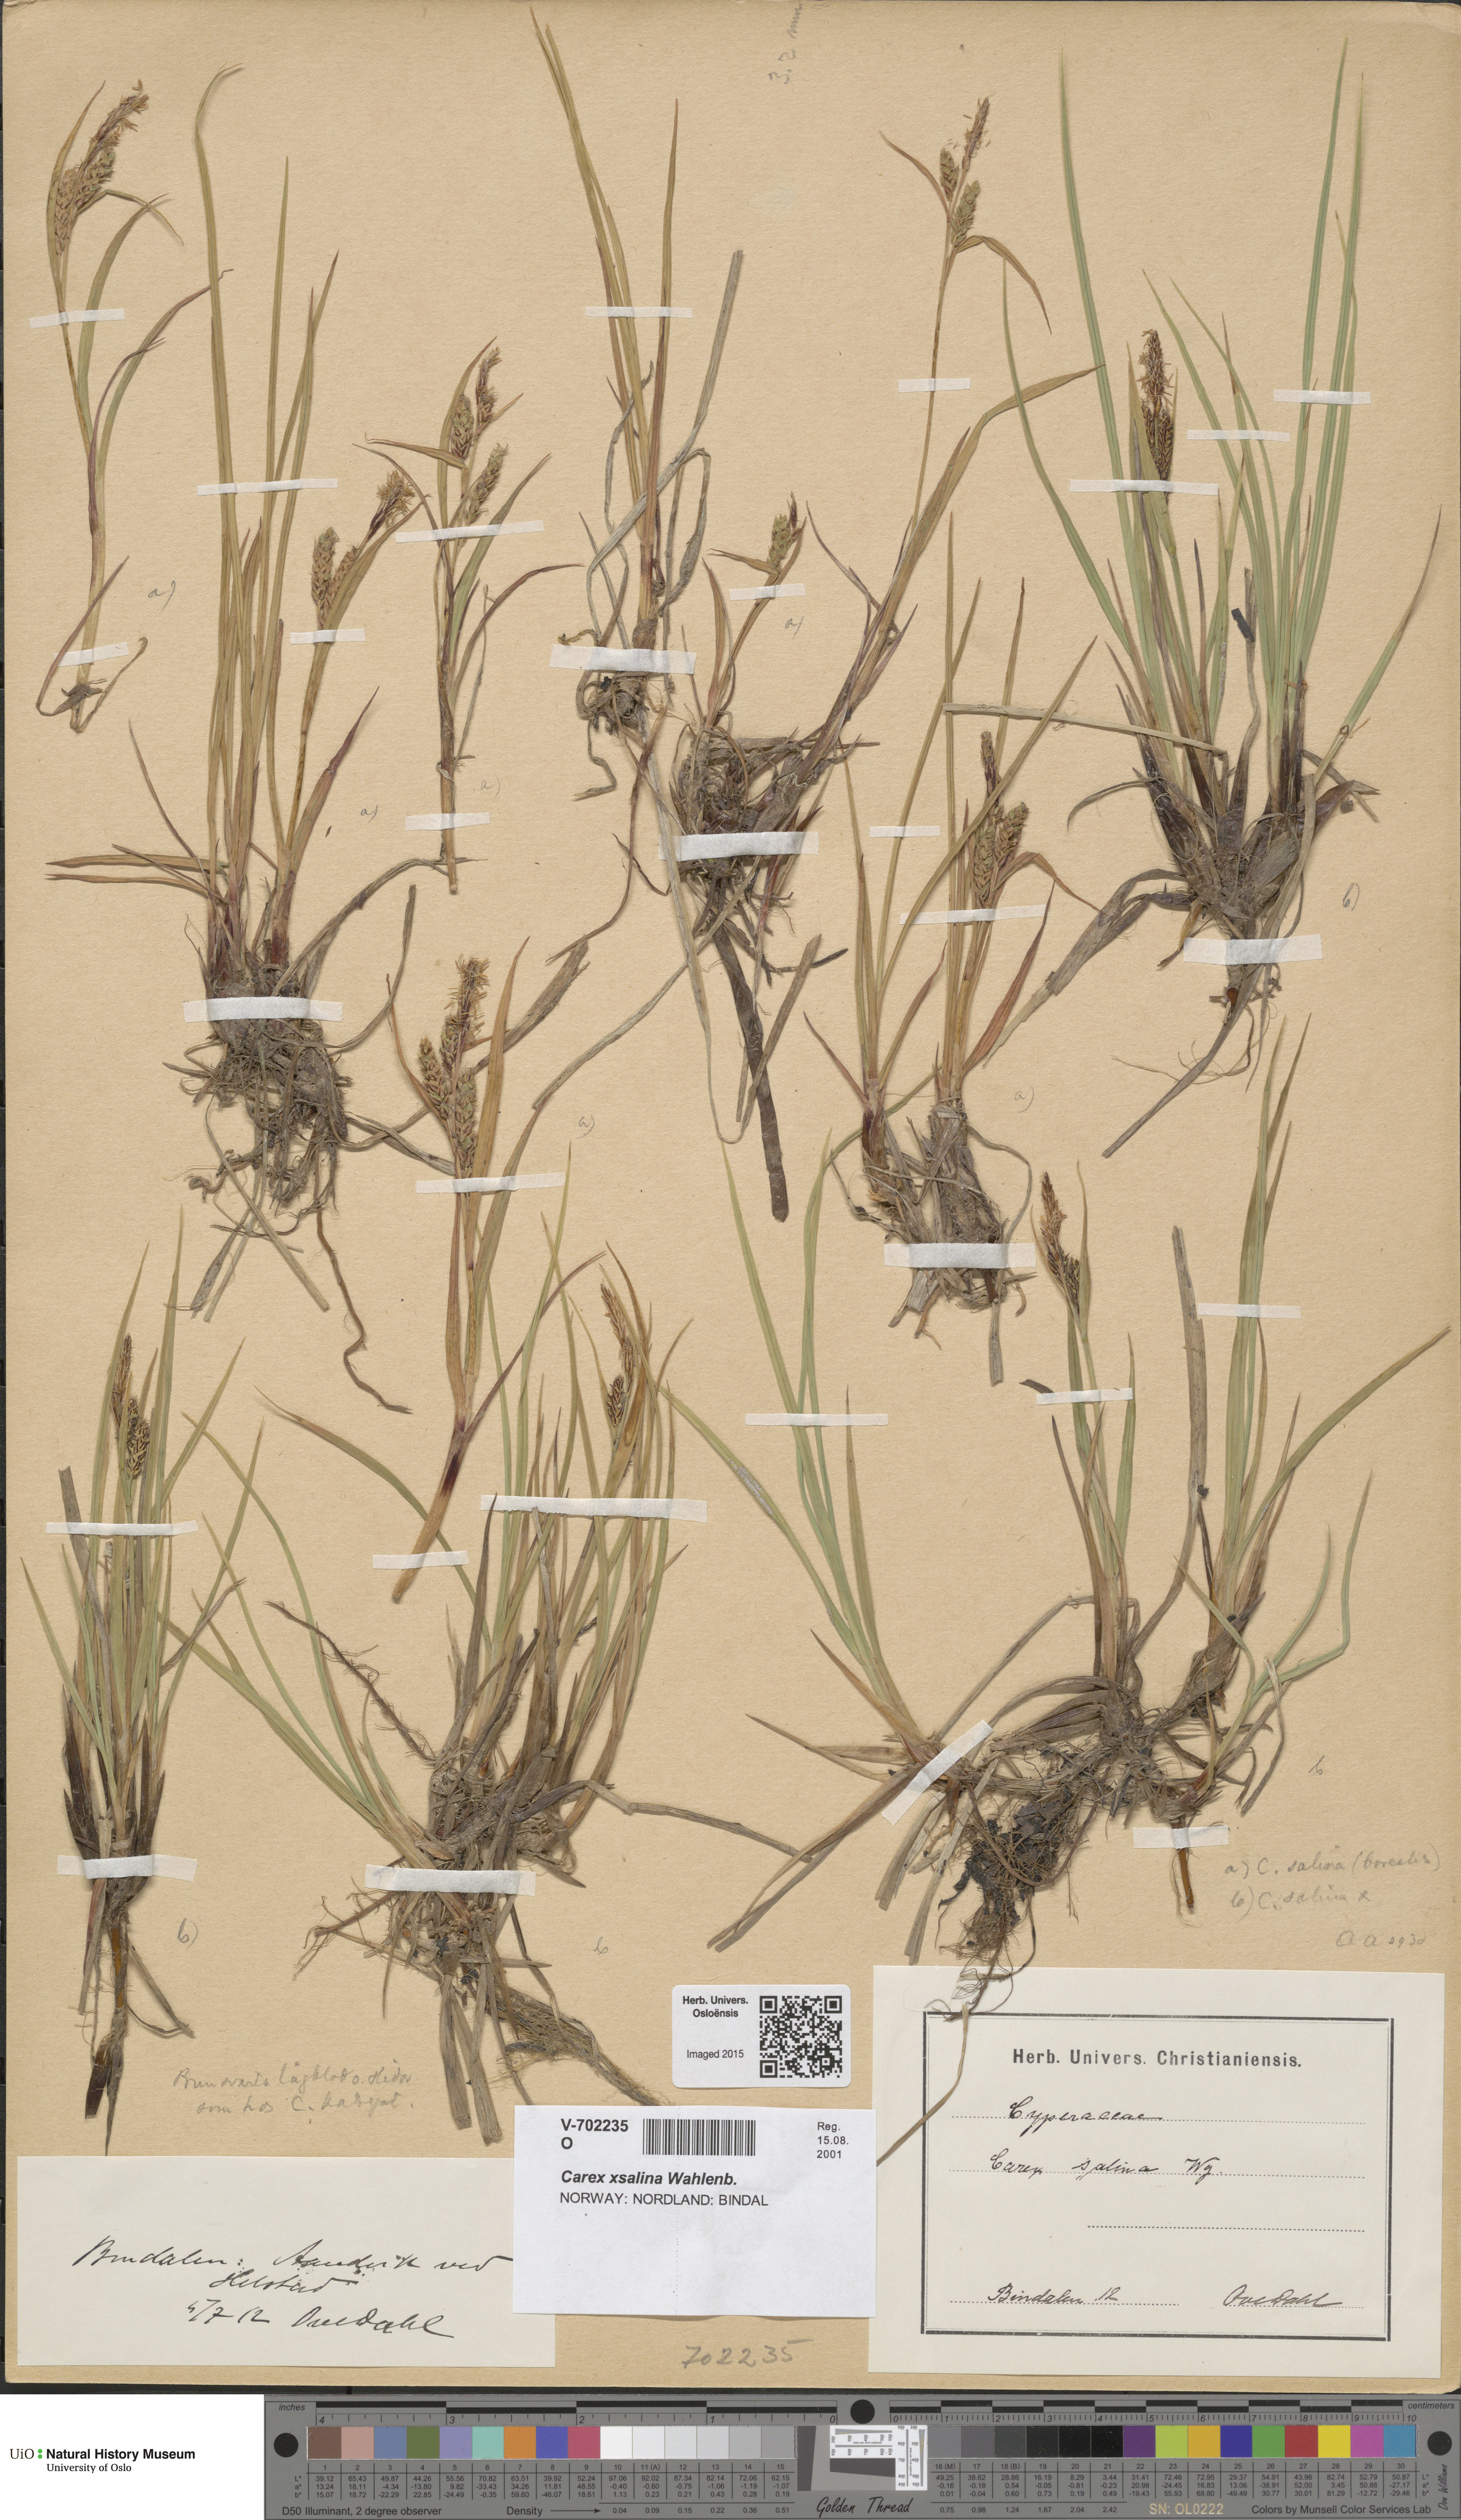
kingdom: Plantae
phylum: Tracheophyta
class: Liliopsida
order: Poales
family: Cyperaceae
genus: Carex
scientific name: Carex salina
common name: Saltmarsh sedge
